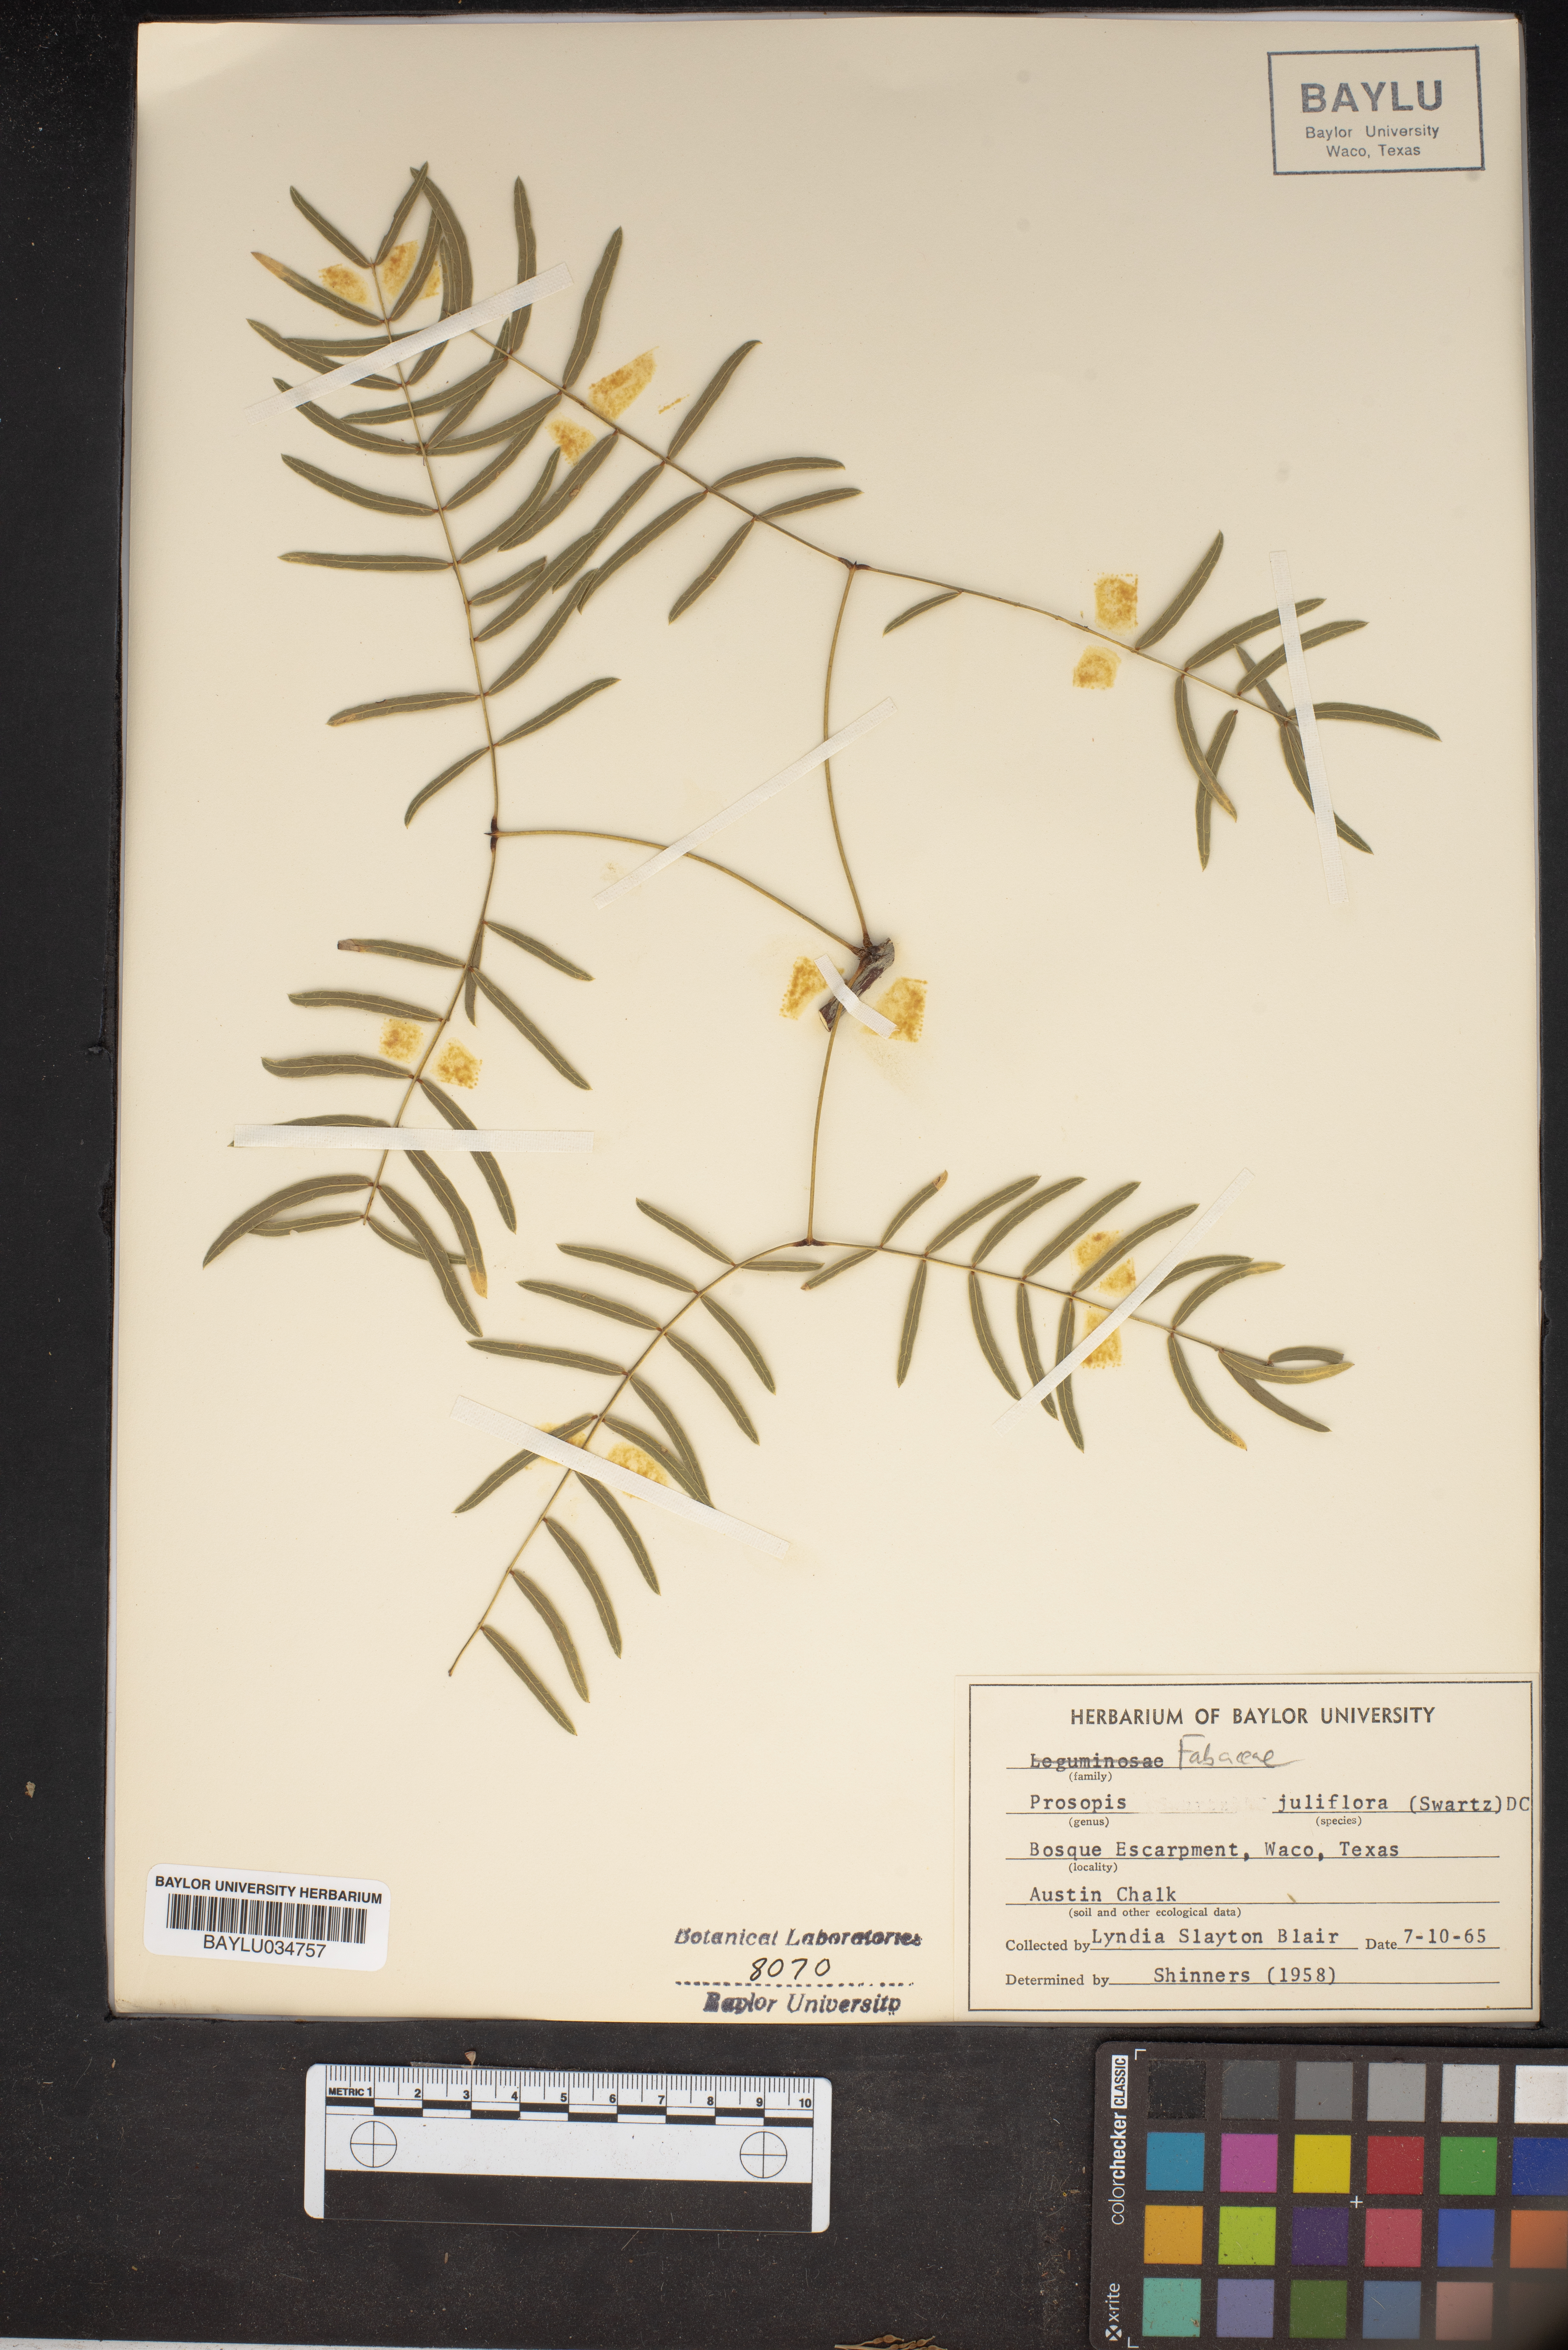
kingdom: Plantae
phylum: Tracheophyta
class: Magnoliopsida
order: Fabales
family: Fabaceae
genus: Prosopis
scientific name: Prosopis juliflora
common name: Mesquite
